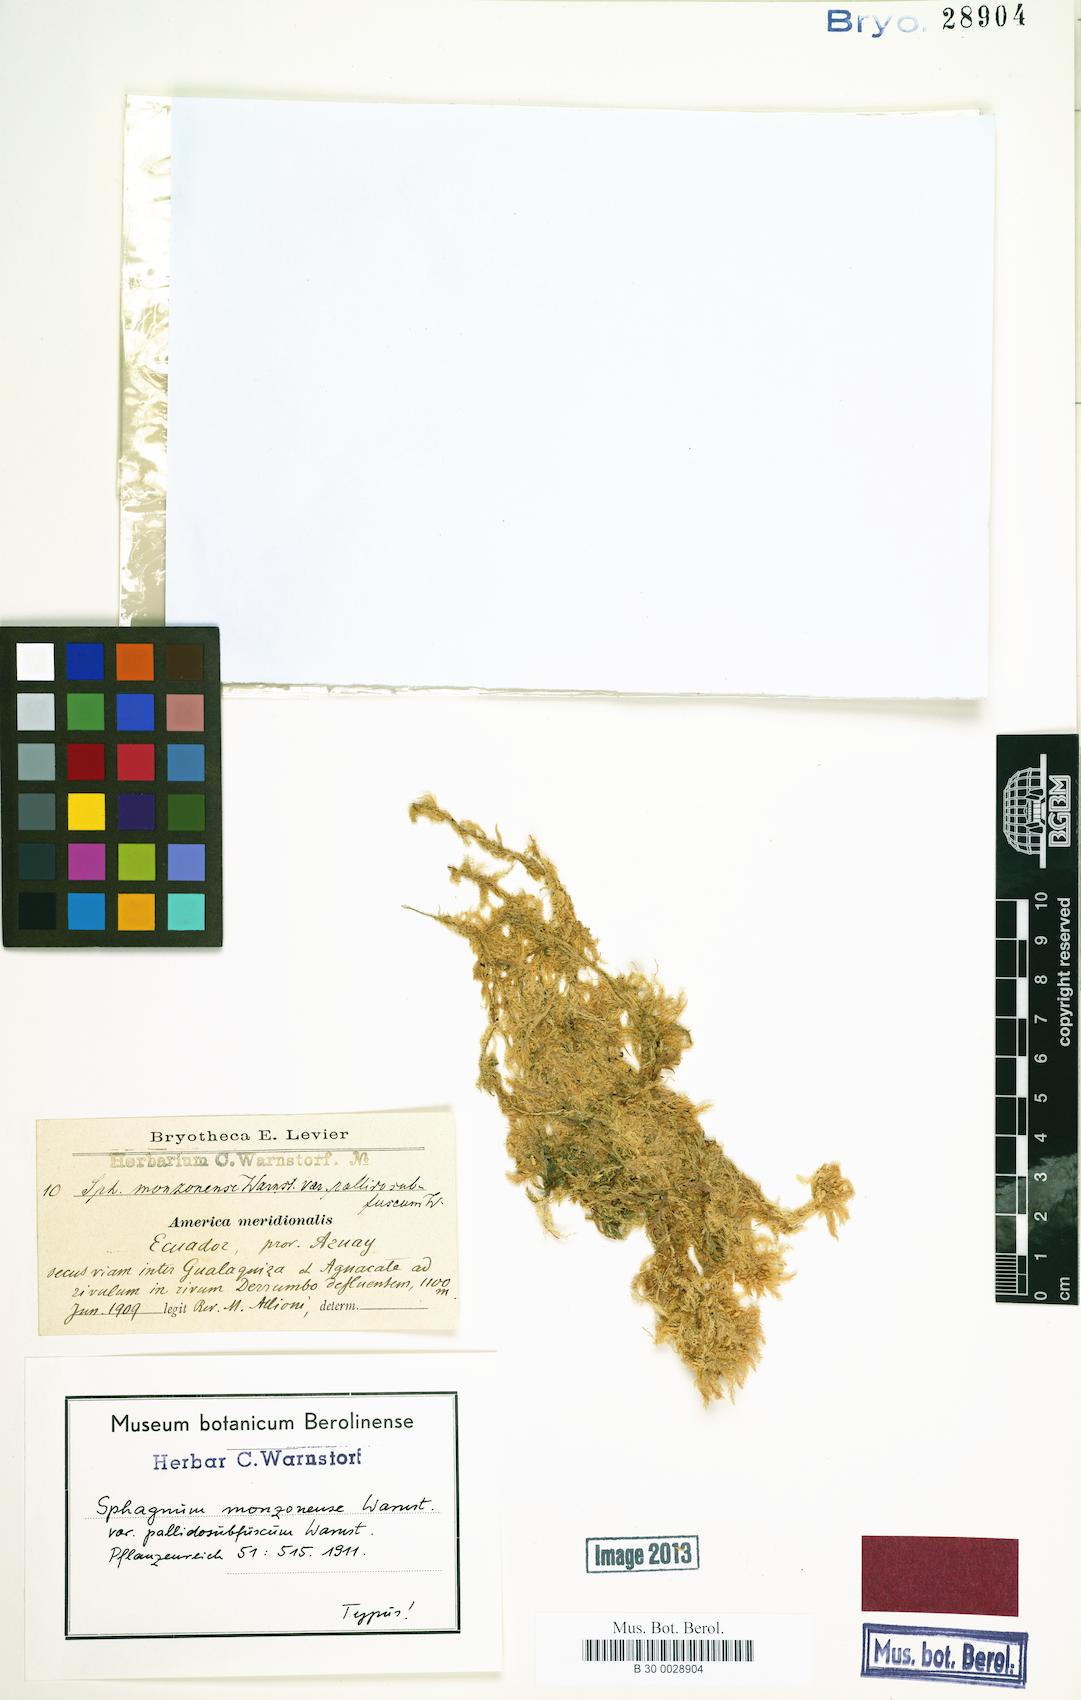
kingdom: Plantae
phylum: Bryophyta
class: Sphagnopsida
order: Sphagnales
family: Sphagnaceae
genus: Sphagnum
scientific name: Sphagnum magellanicum
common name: Magellan's peat moss
